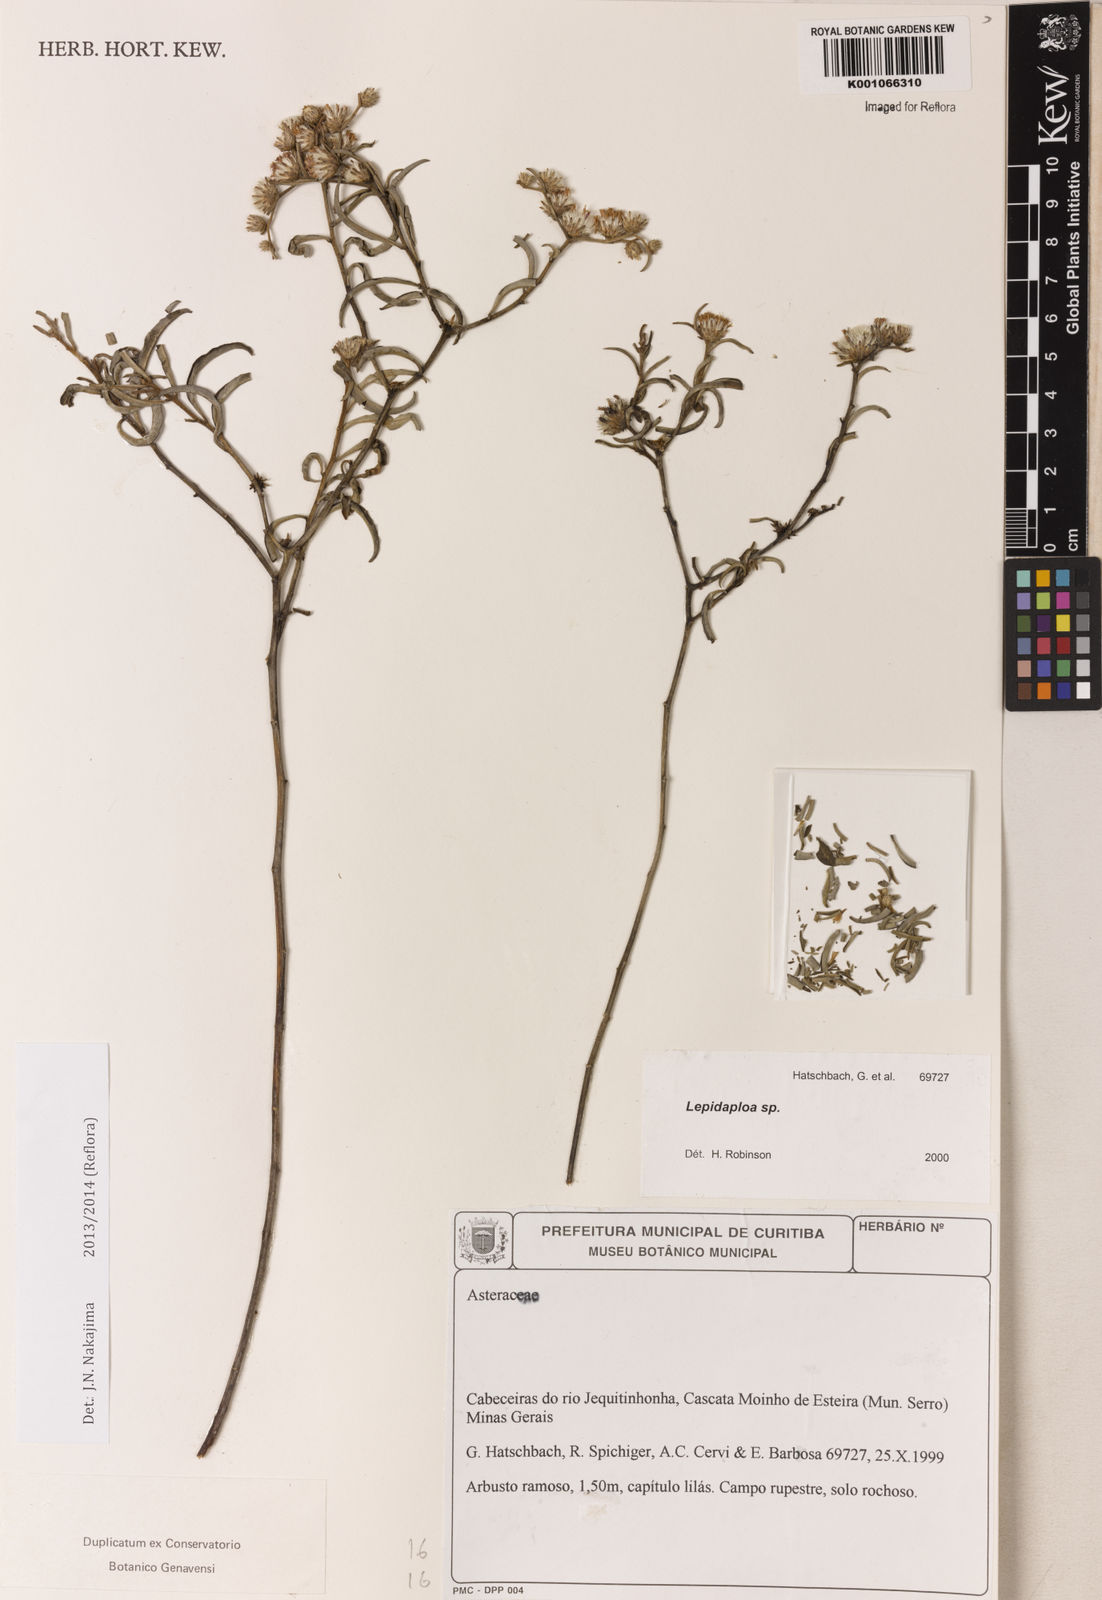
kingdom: Plantae
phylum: Tracheophyta
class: Magnoliopsida
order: Asterales
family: Asteraceae
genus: Lepidaploa
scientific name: Lepidaploa chalybaea
